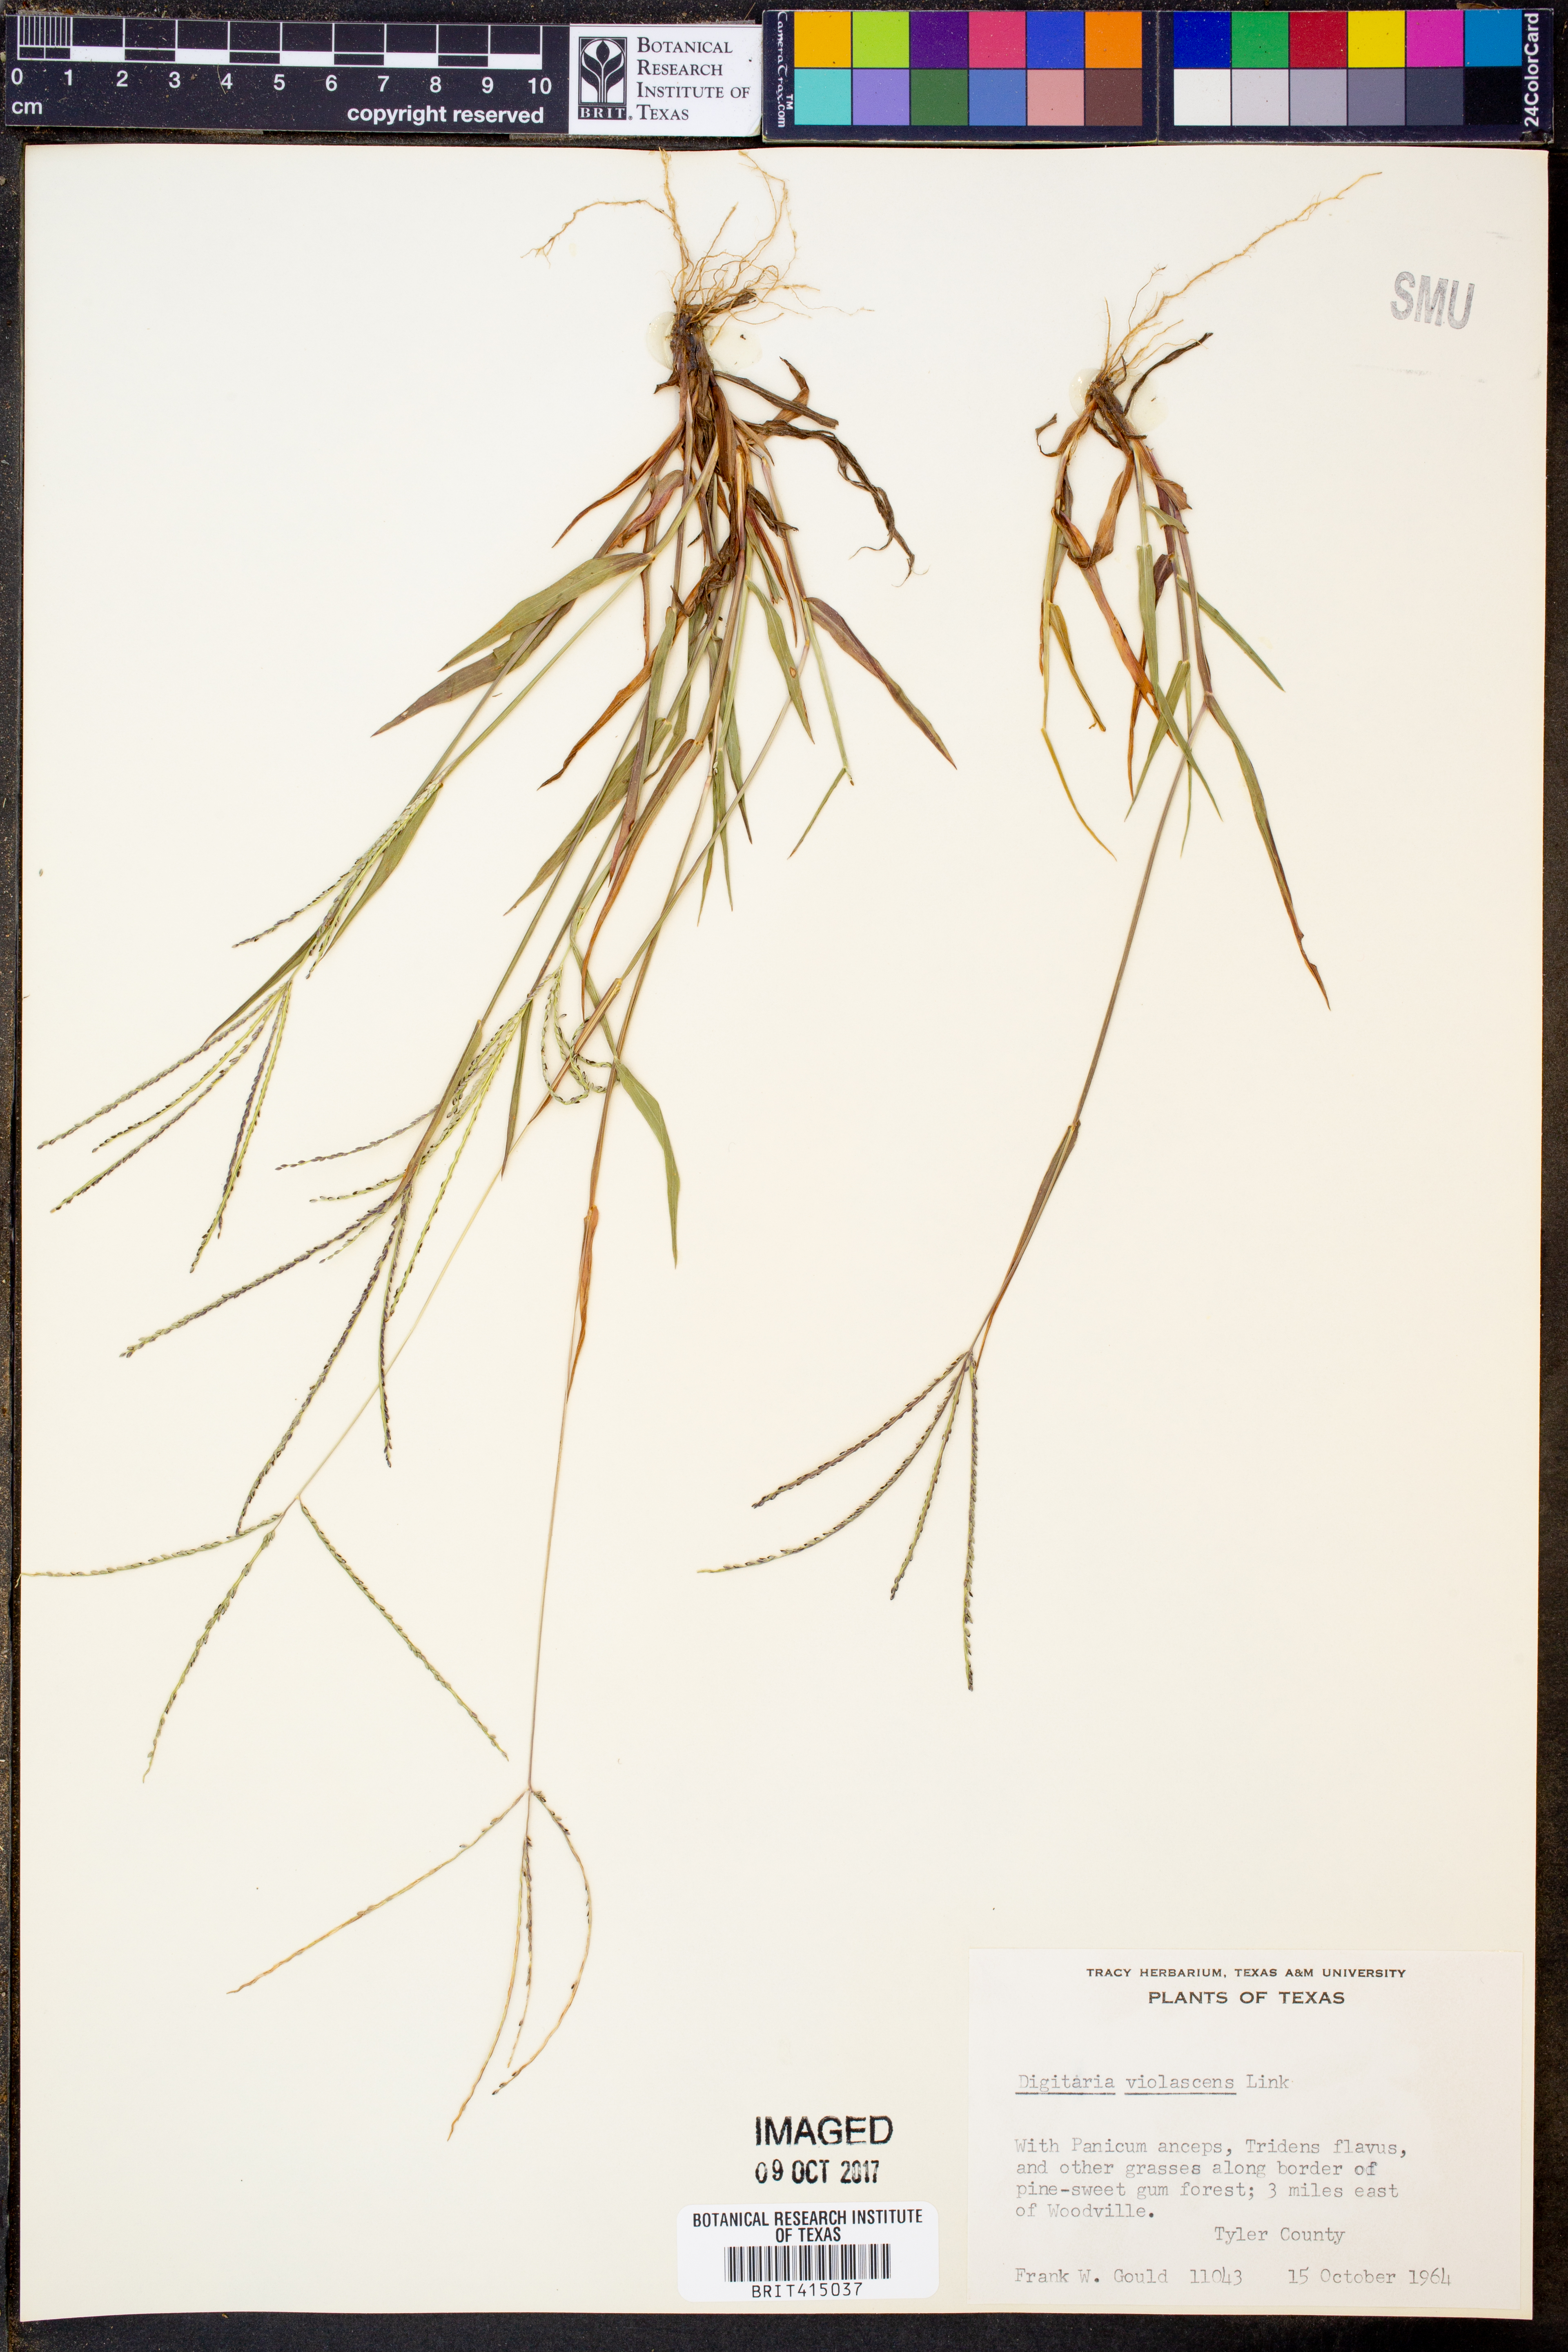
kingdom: Plantae
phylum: Tracheophyta
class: Liliopsida
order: Poales
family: Poaceae
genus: Digitaria
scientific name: Digitaria violascens
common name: Violet crabgrass
